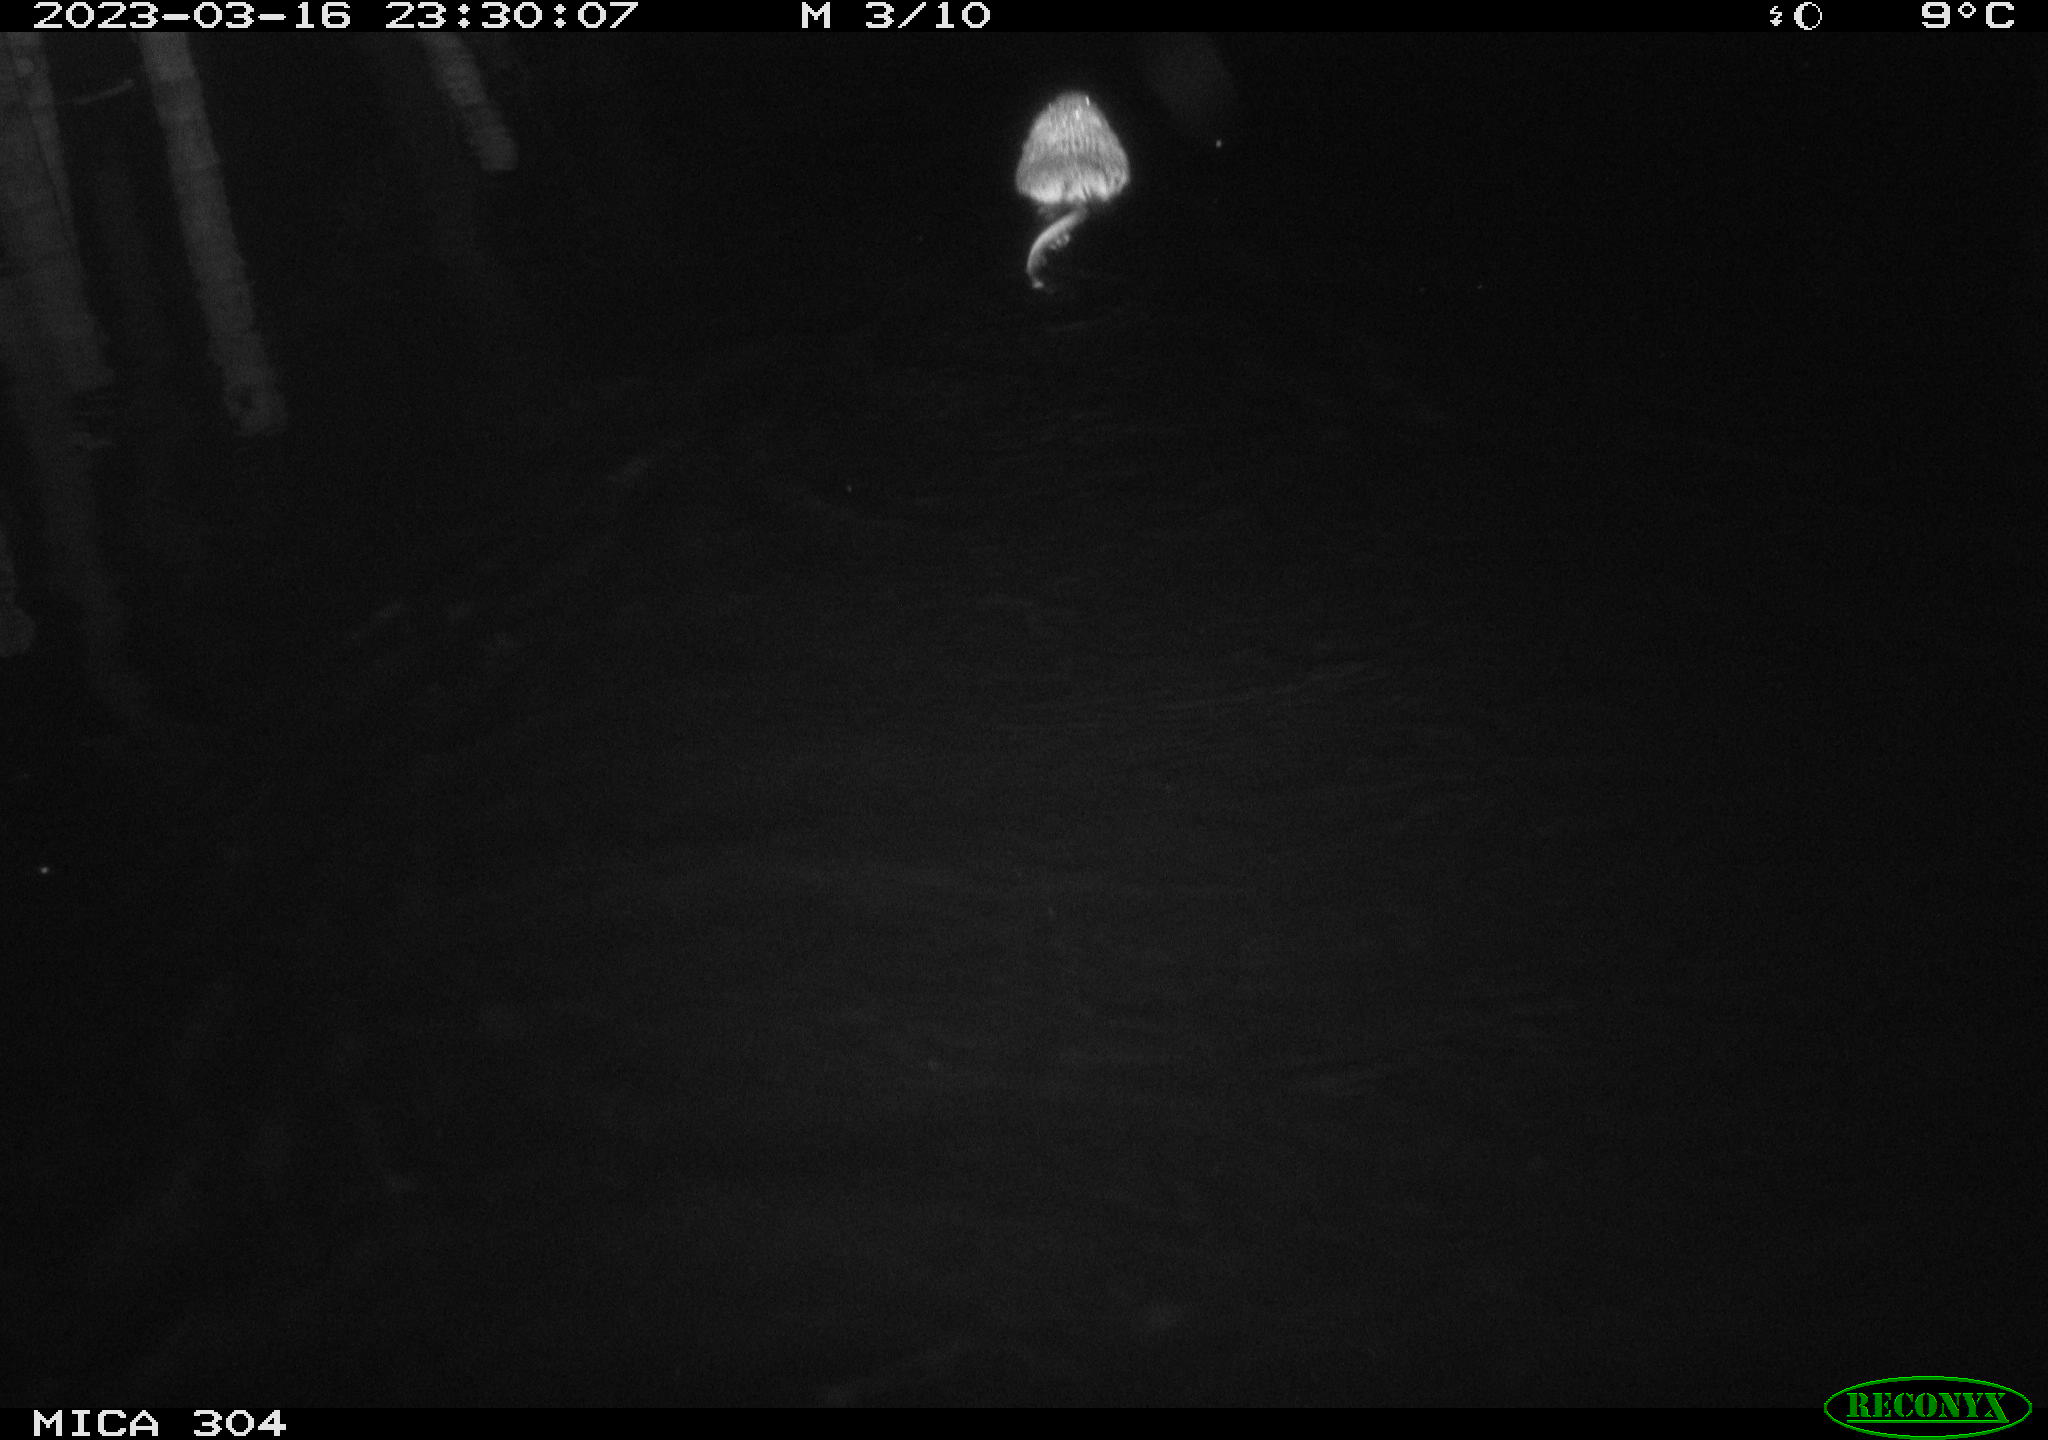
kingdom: Animalia
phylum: Chordata
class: Mammalia
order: Rodentia
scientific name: Rodentia
